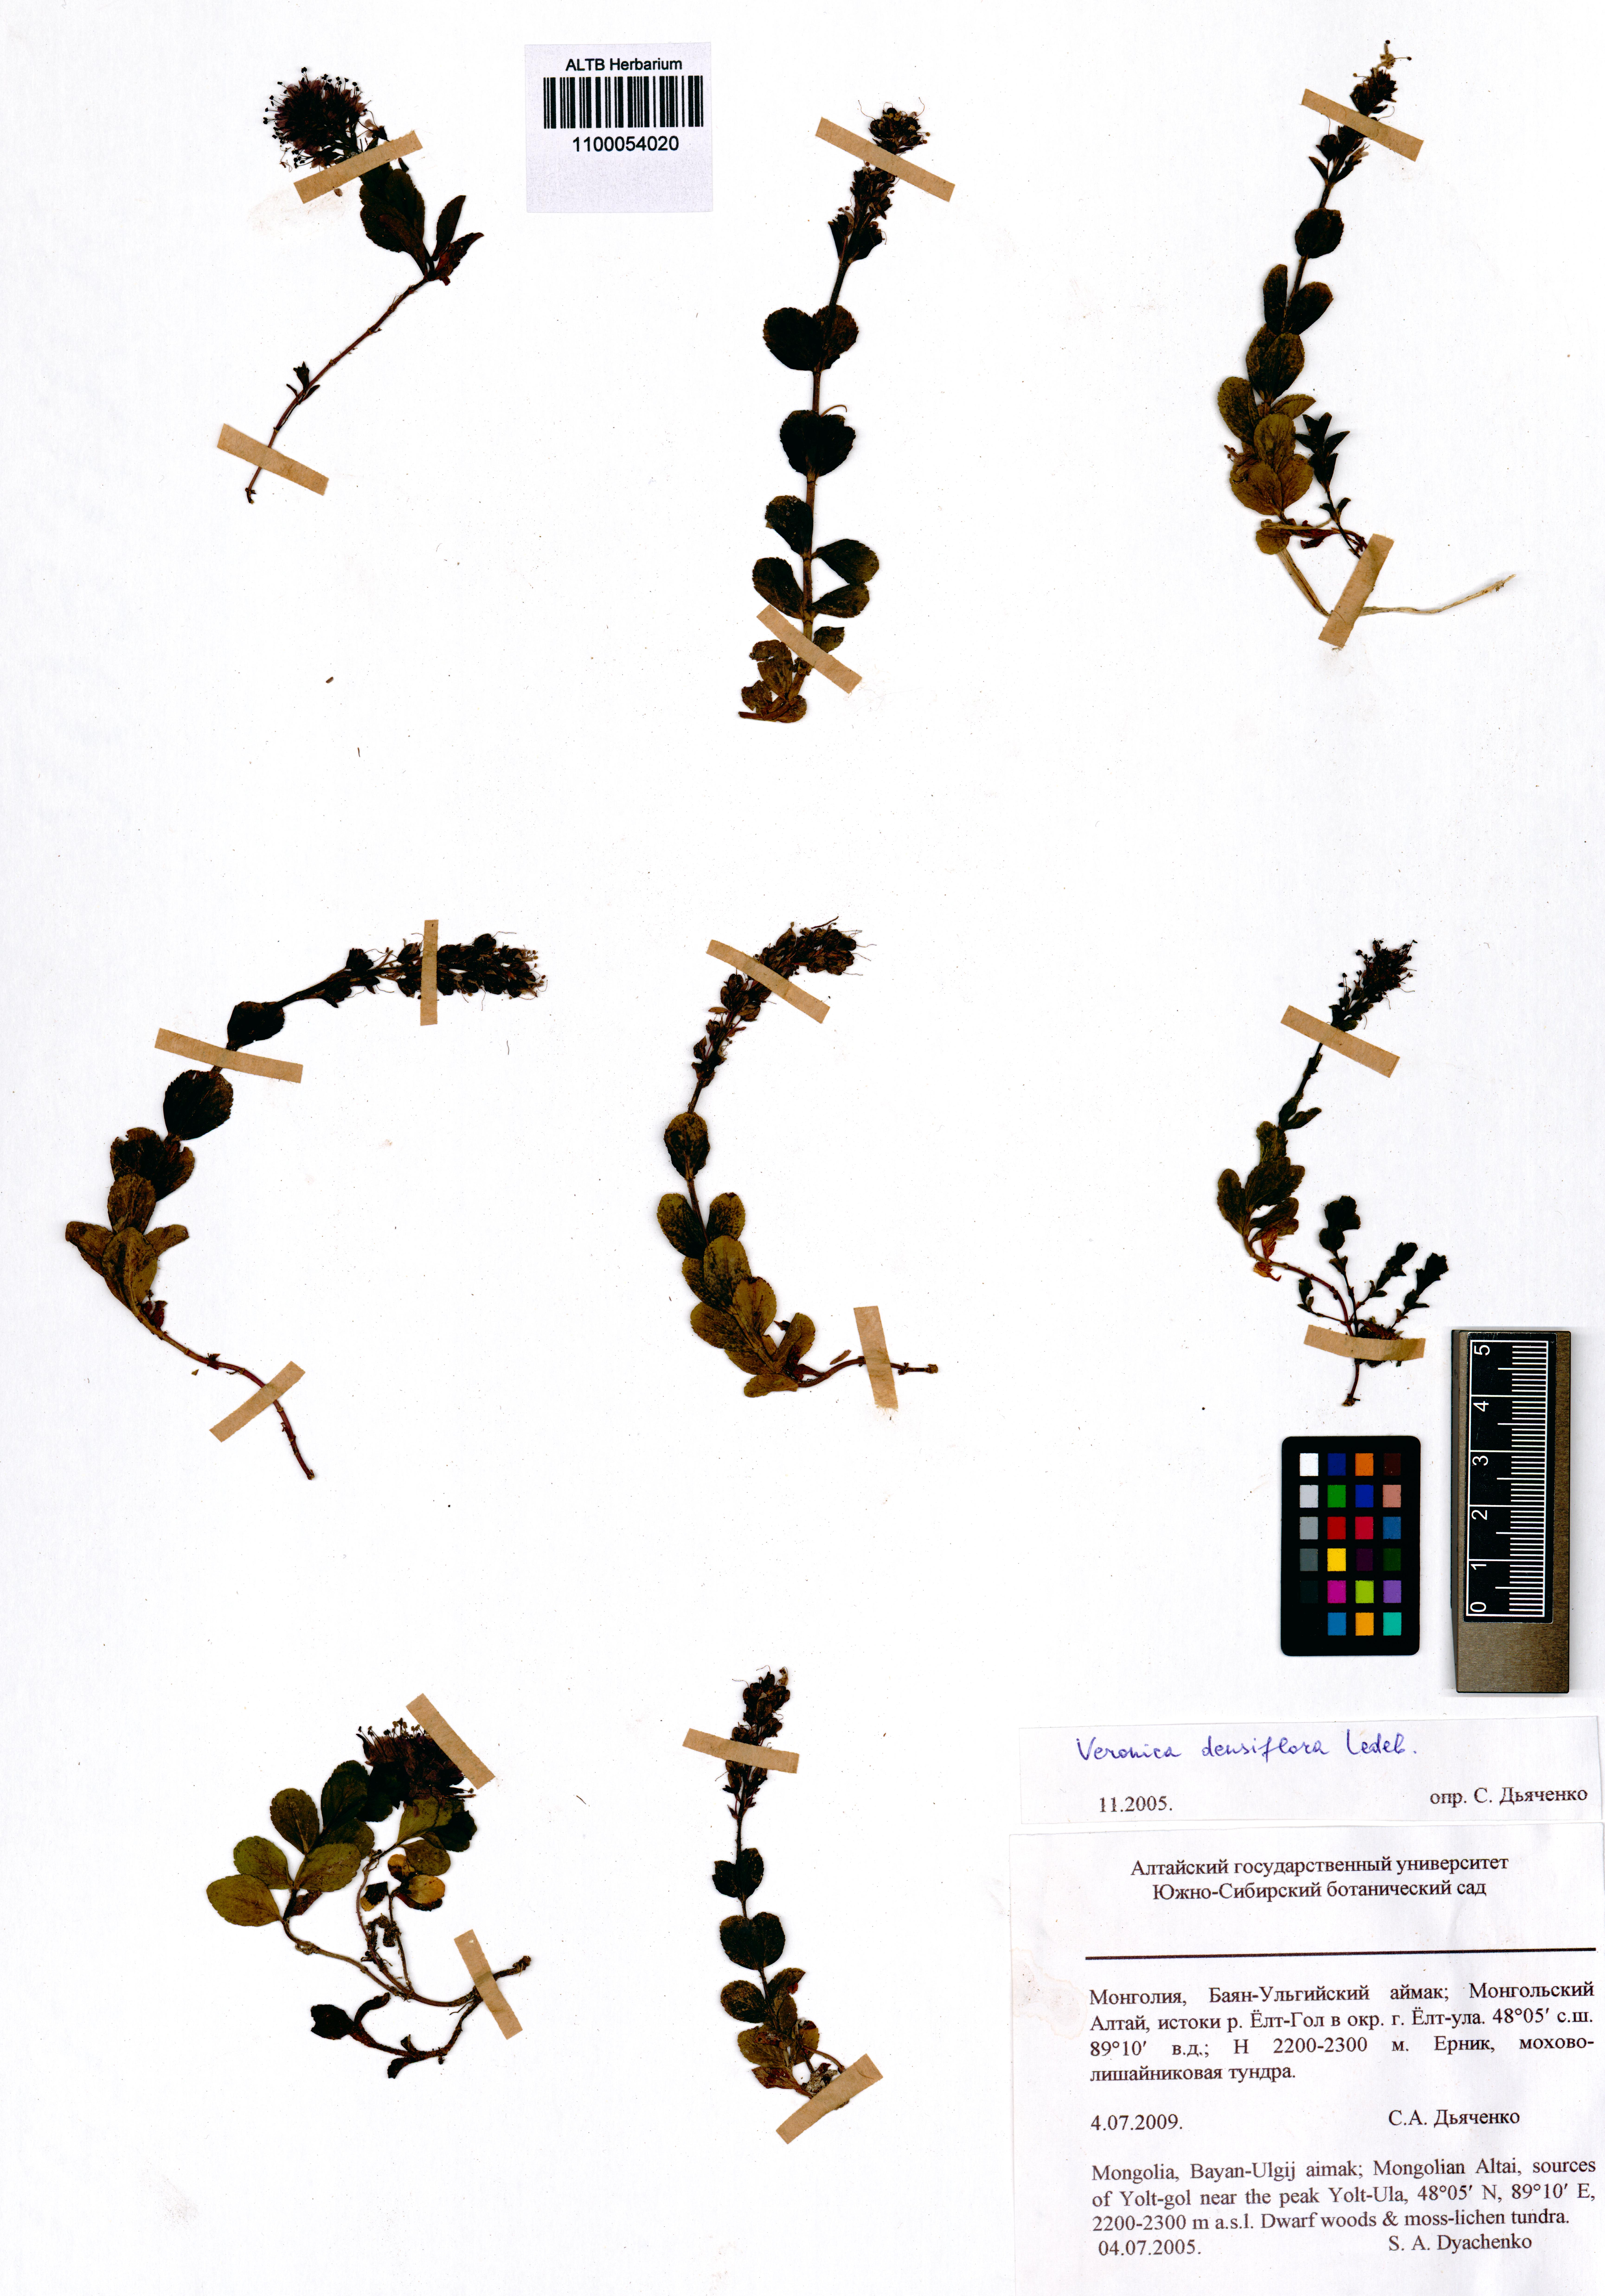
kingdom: Plantae
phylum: Tracheophyta
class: Magnoliopsida
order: Lamiales
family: Plantaginaceae
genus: Veronica
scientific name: Veronica densiflora
